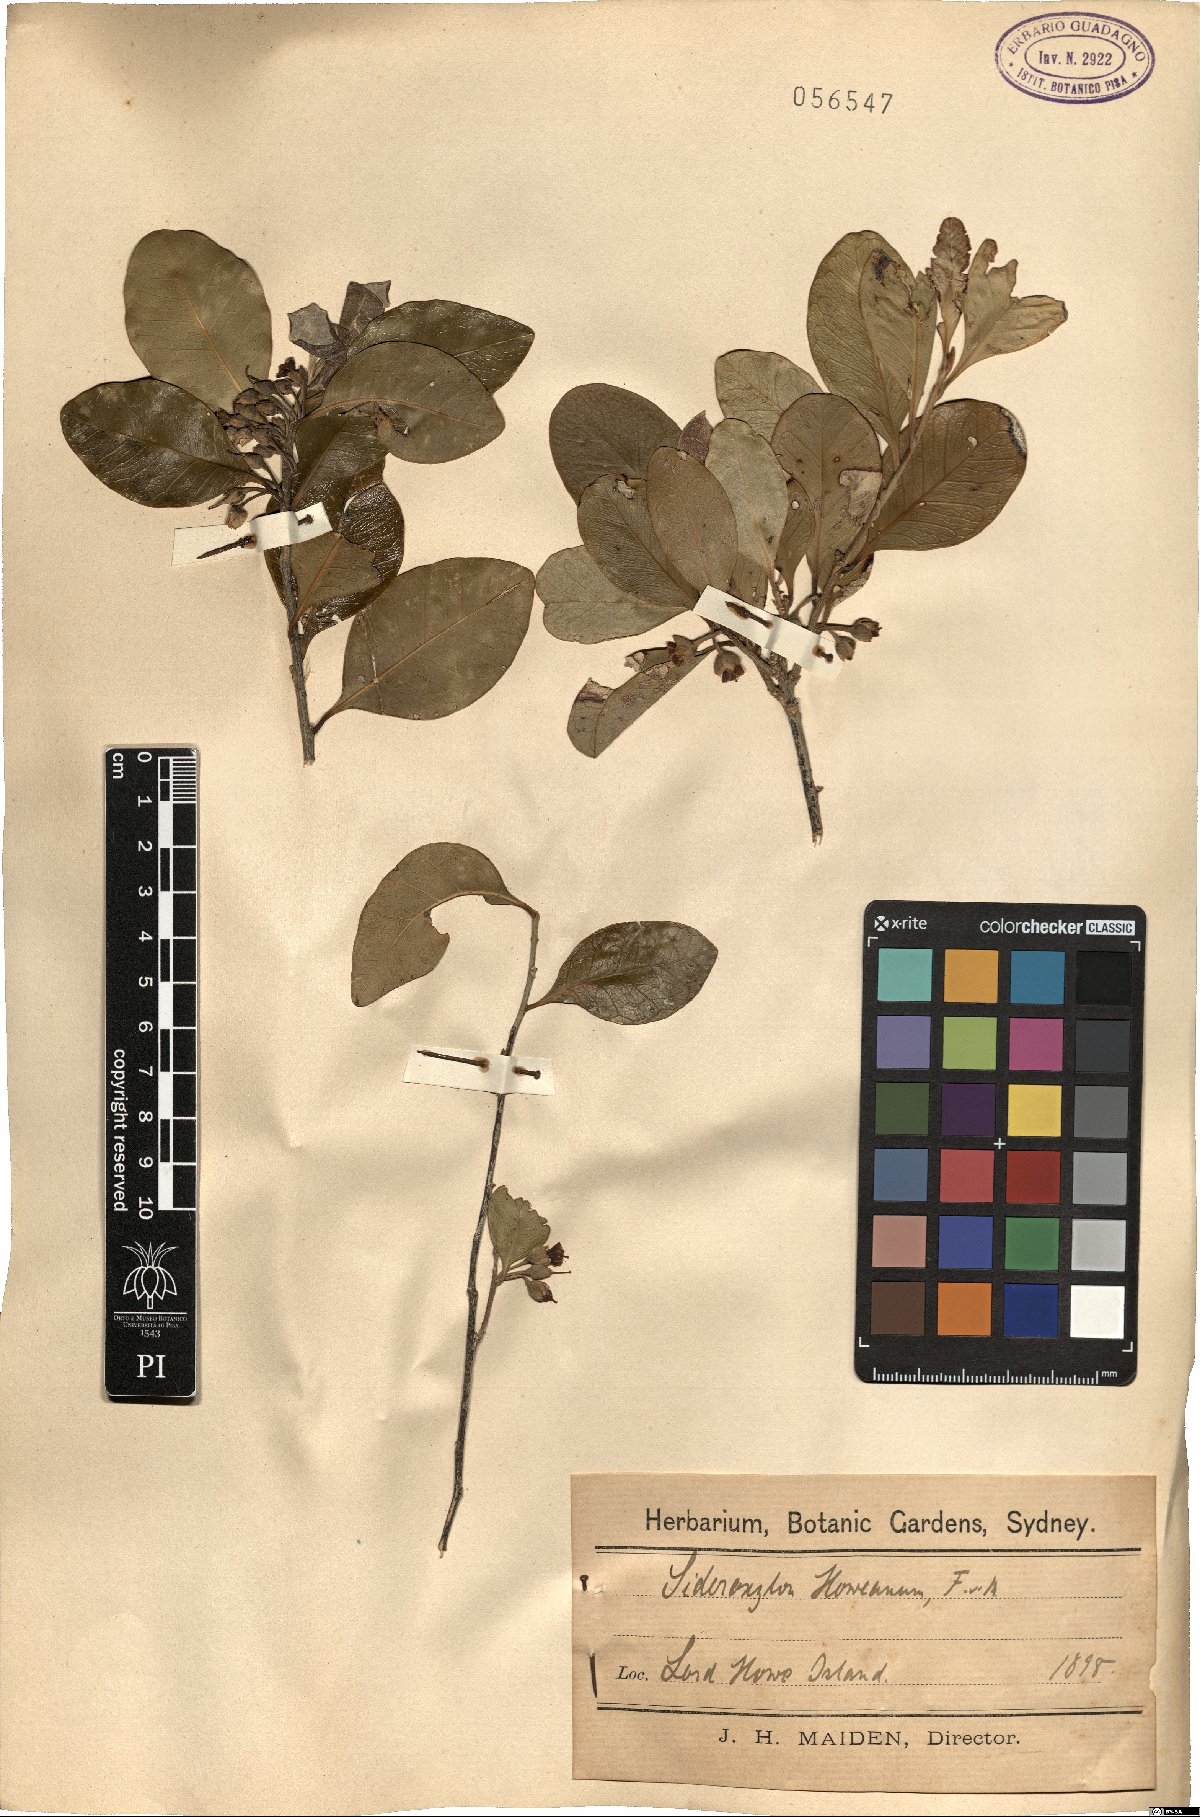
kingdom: Plantae
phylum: Tracheophyta
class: Magnoliopsida
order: Ericales
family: Sapotaceae
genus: Planchonella
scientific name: Planchonella myrsinifolia
